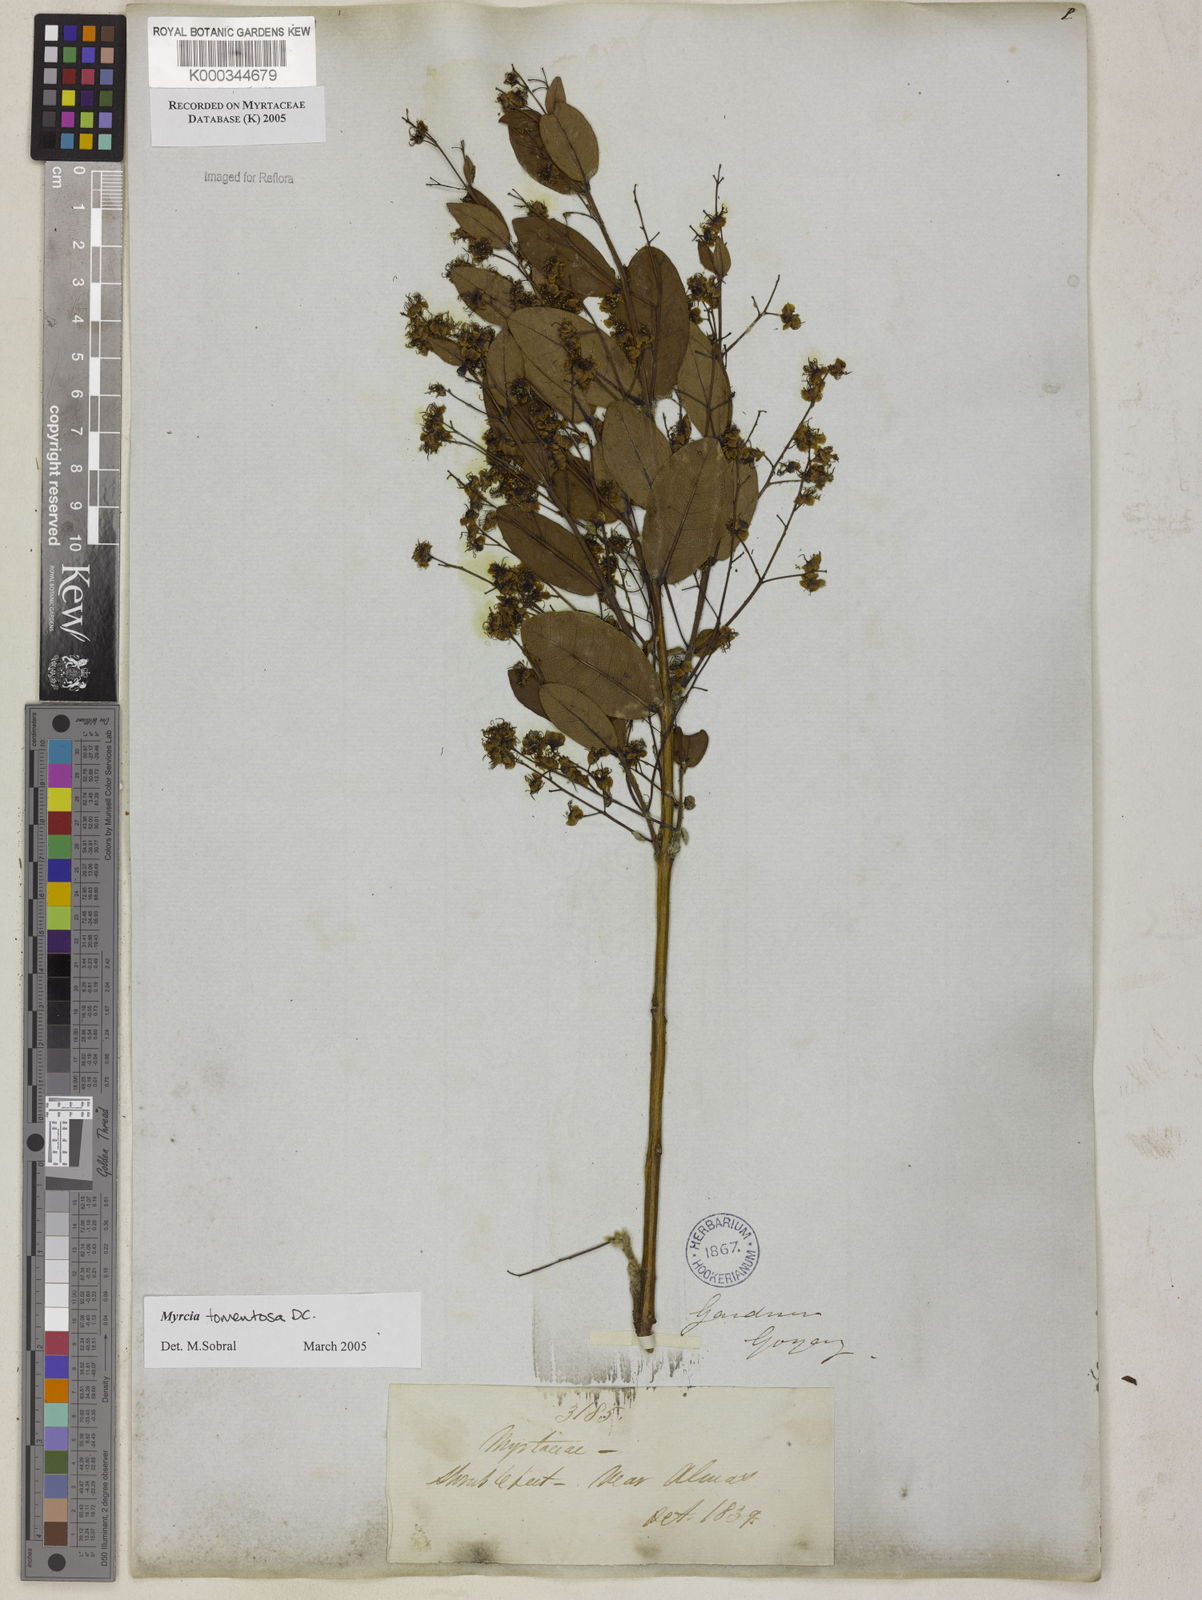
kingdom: Plantae
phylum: Tracheophyta
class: Magnoliopsida
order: Myrtales
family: Myrtaceae
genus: Myrcia
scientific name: Myrcia tomentosa
